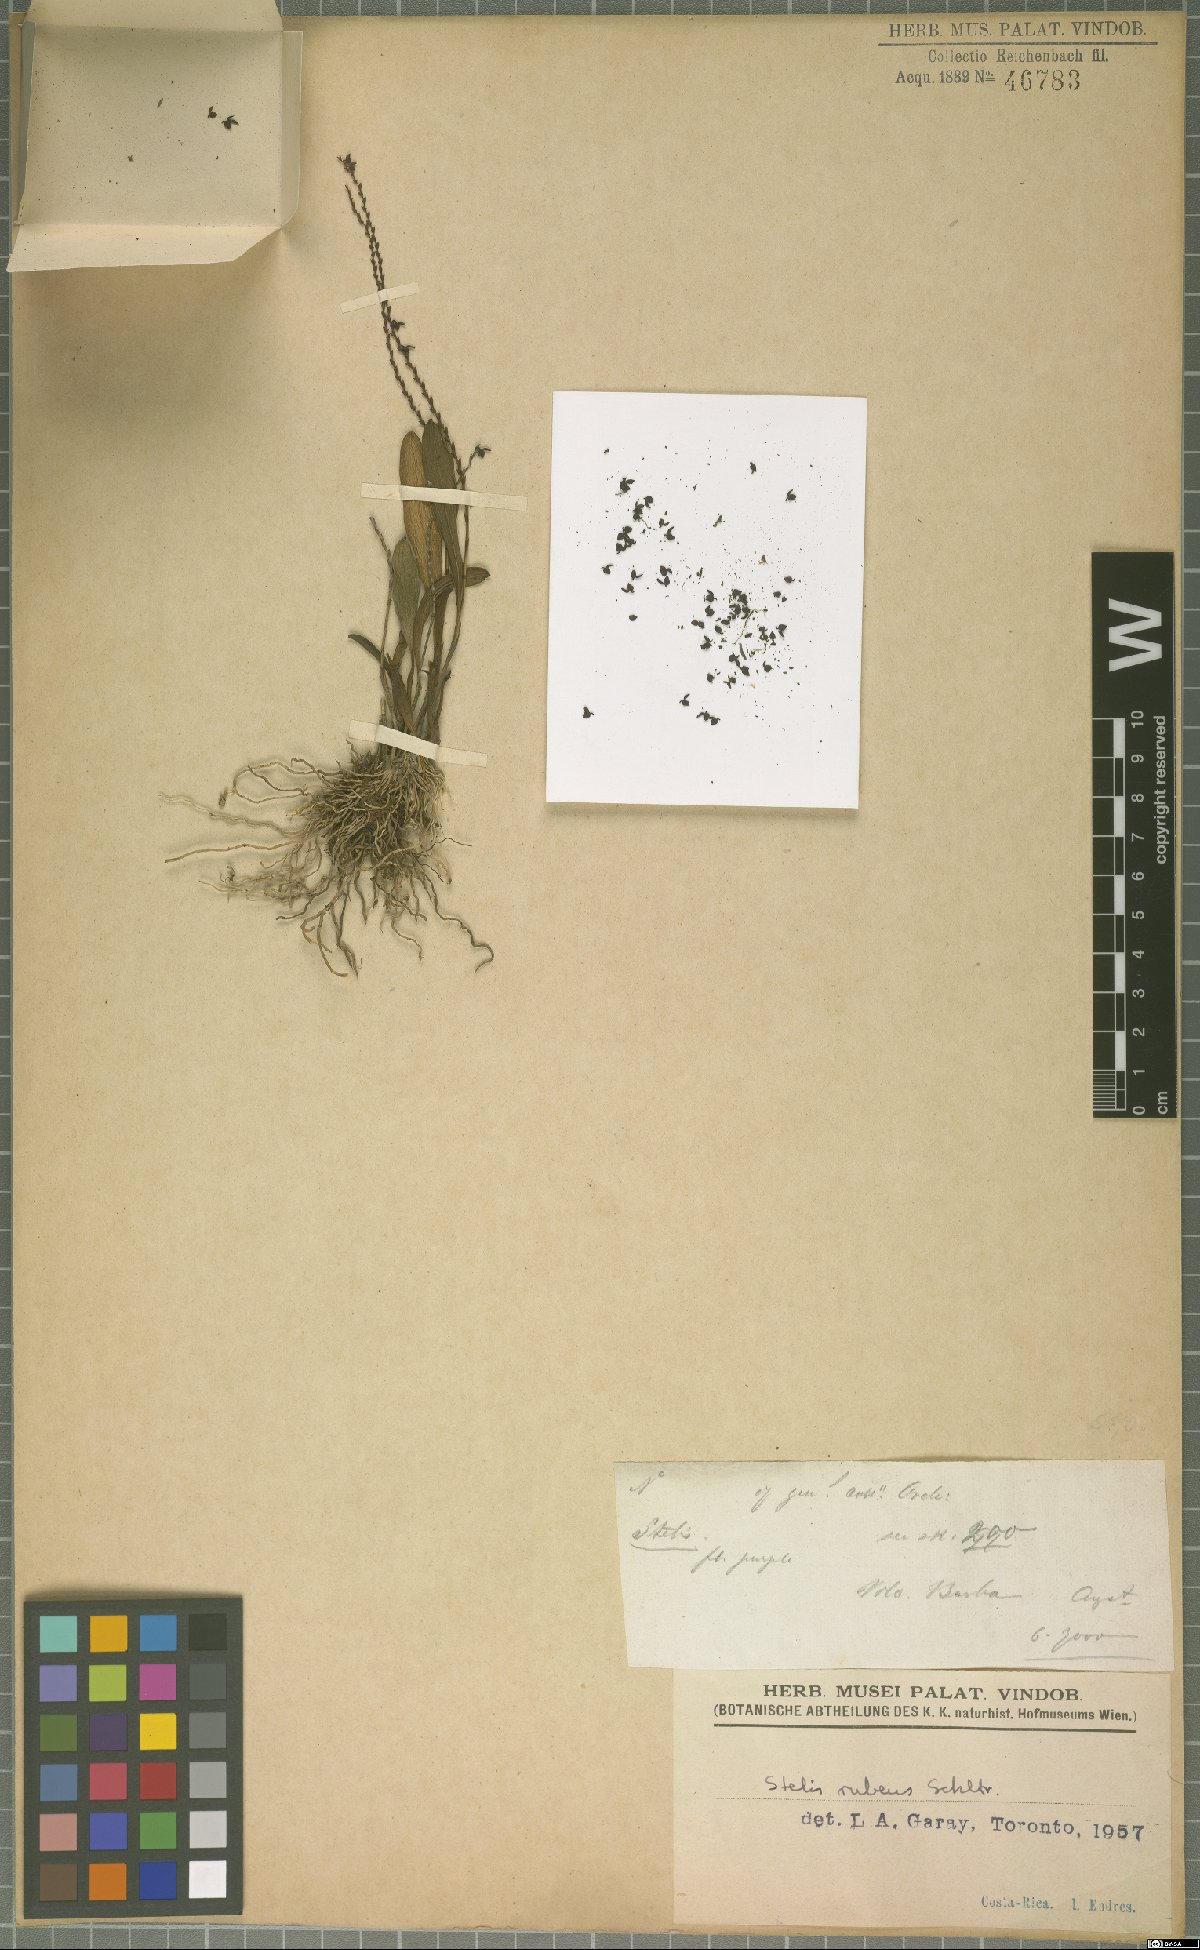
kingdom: Plantae
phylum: Tracheophyta
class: Liliopsida
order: Asparagales
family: Orchidaceae
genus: Stelis
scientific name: Stelis rubens
